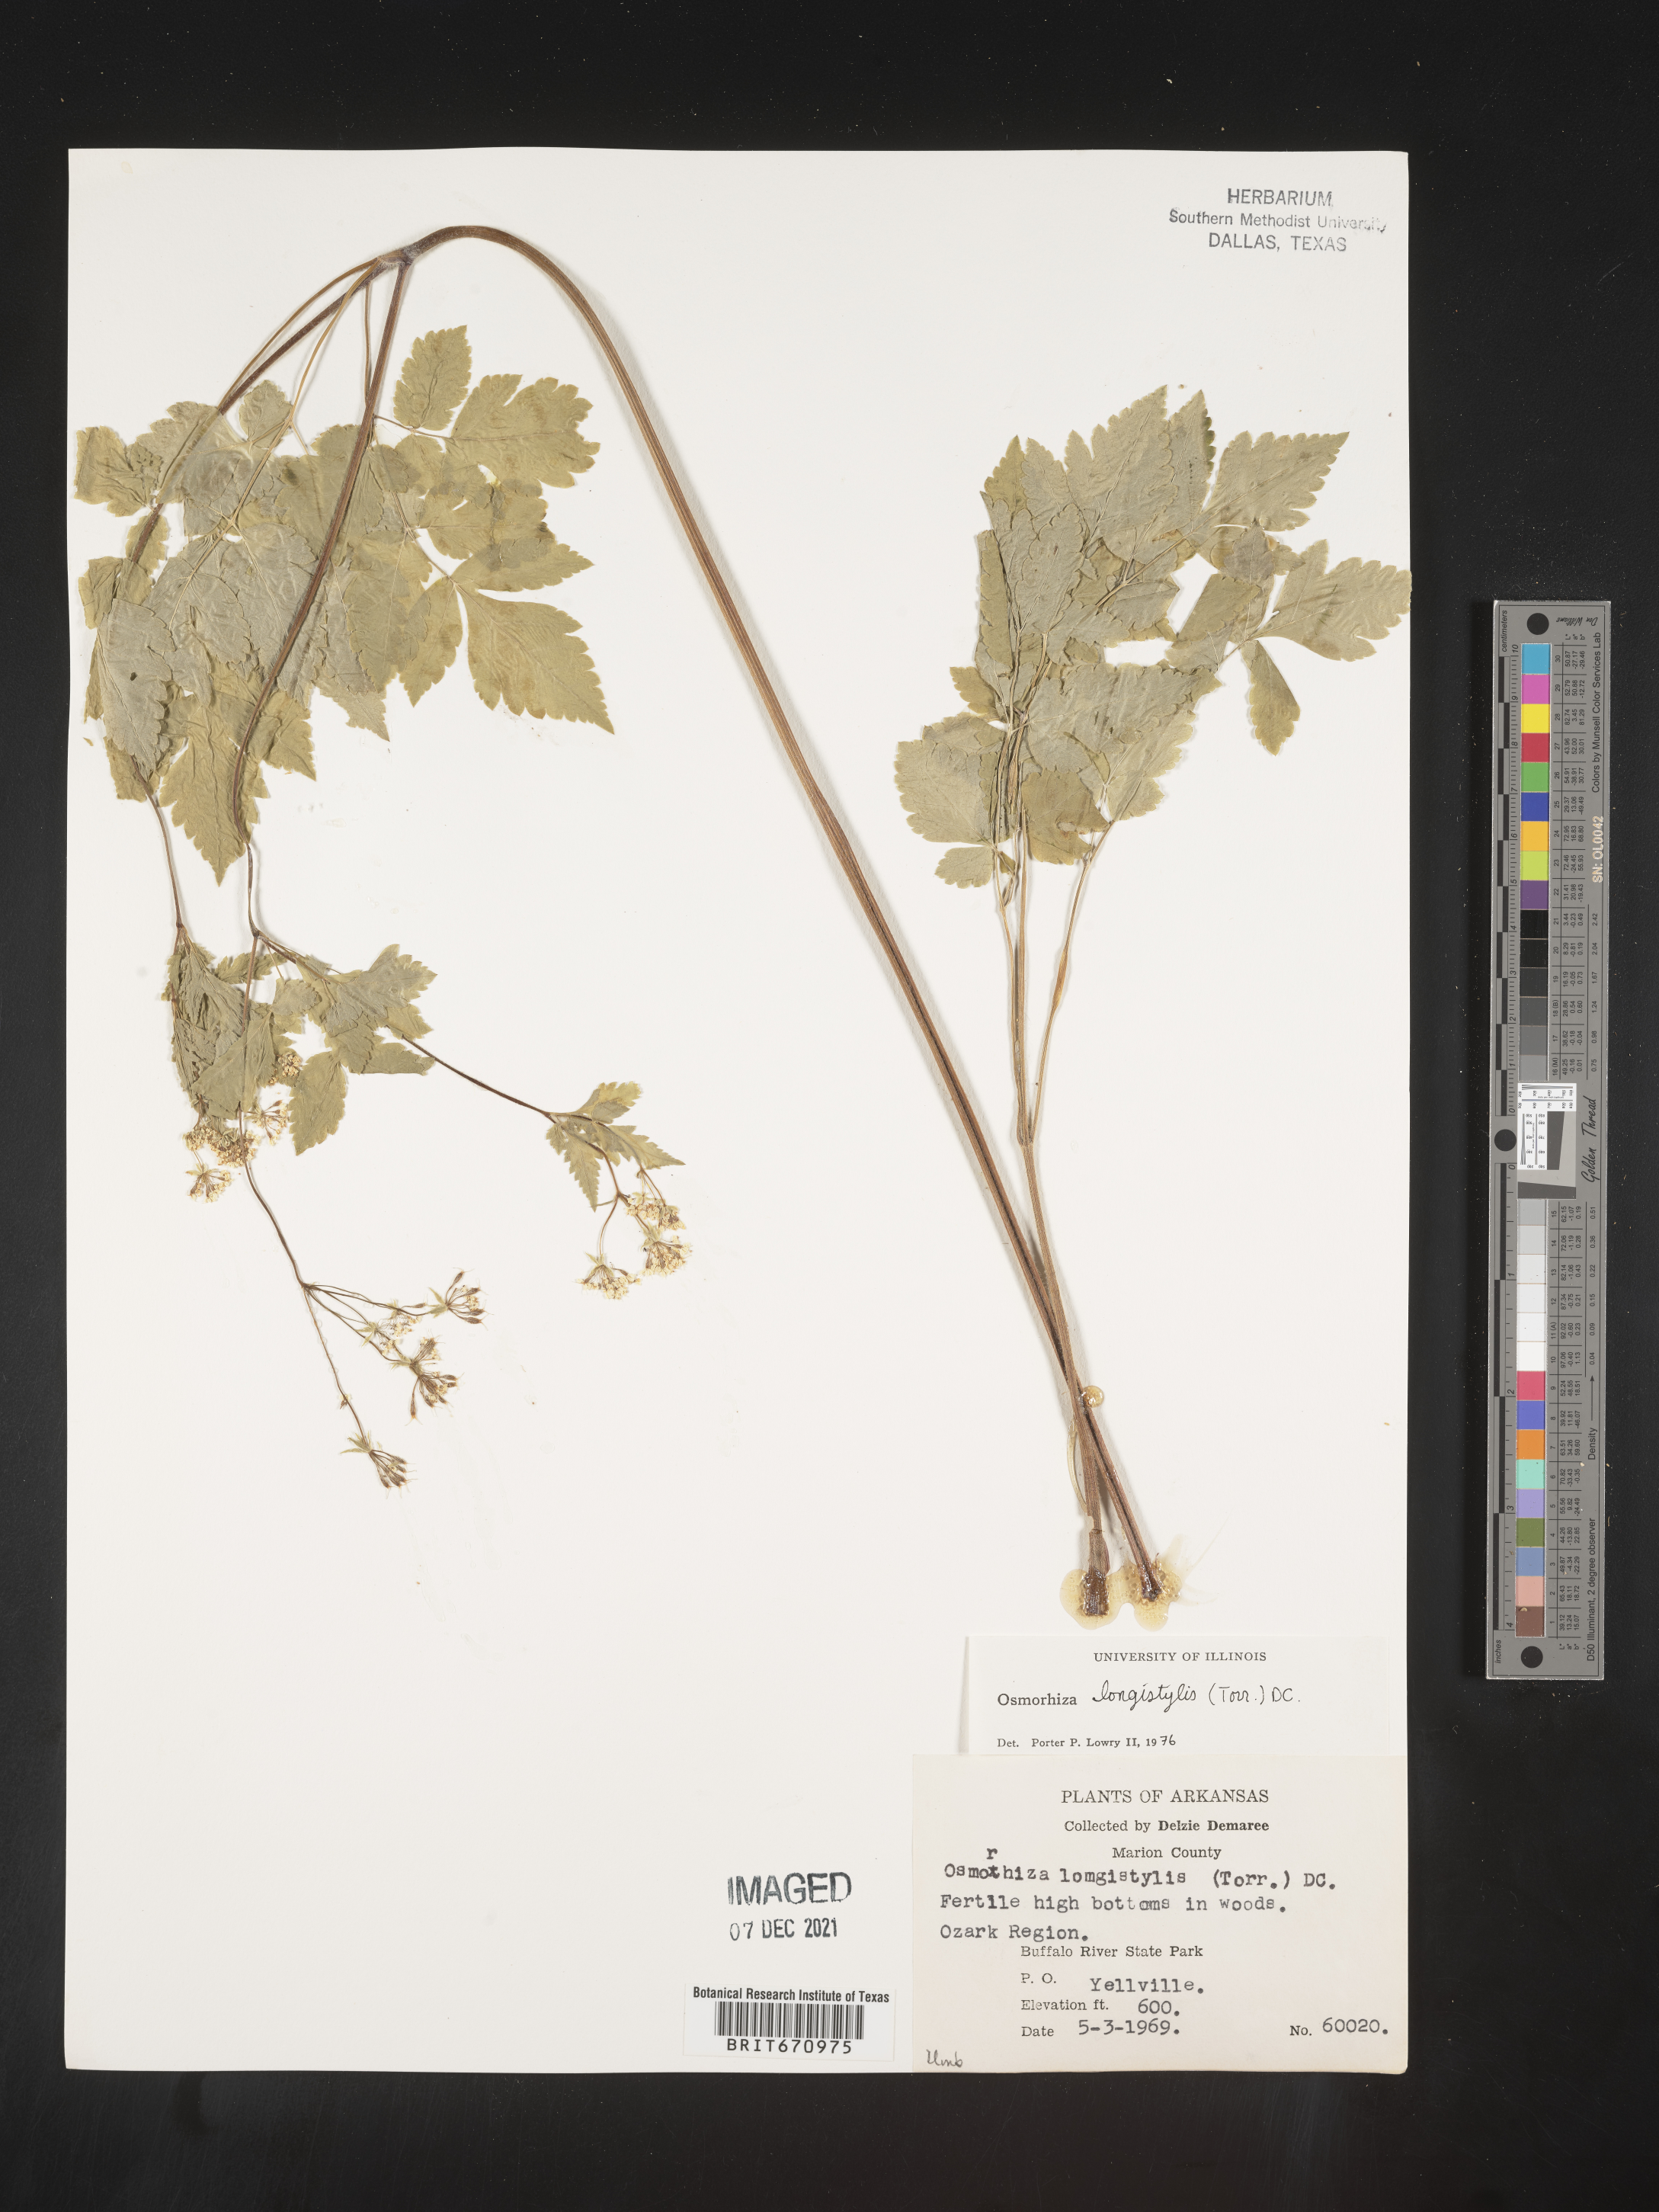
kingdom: Plantae
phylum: Tracheophyta
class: Magnoliopsida
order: Apiales
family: Apiaceae
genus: Osmorhiza
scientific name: Osmorhiza longistylis
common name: Smooth sweet cicely
